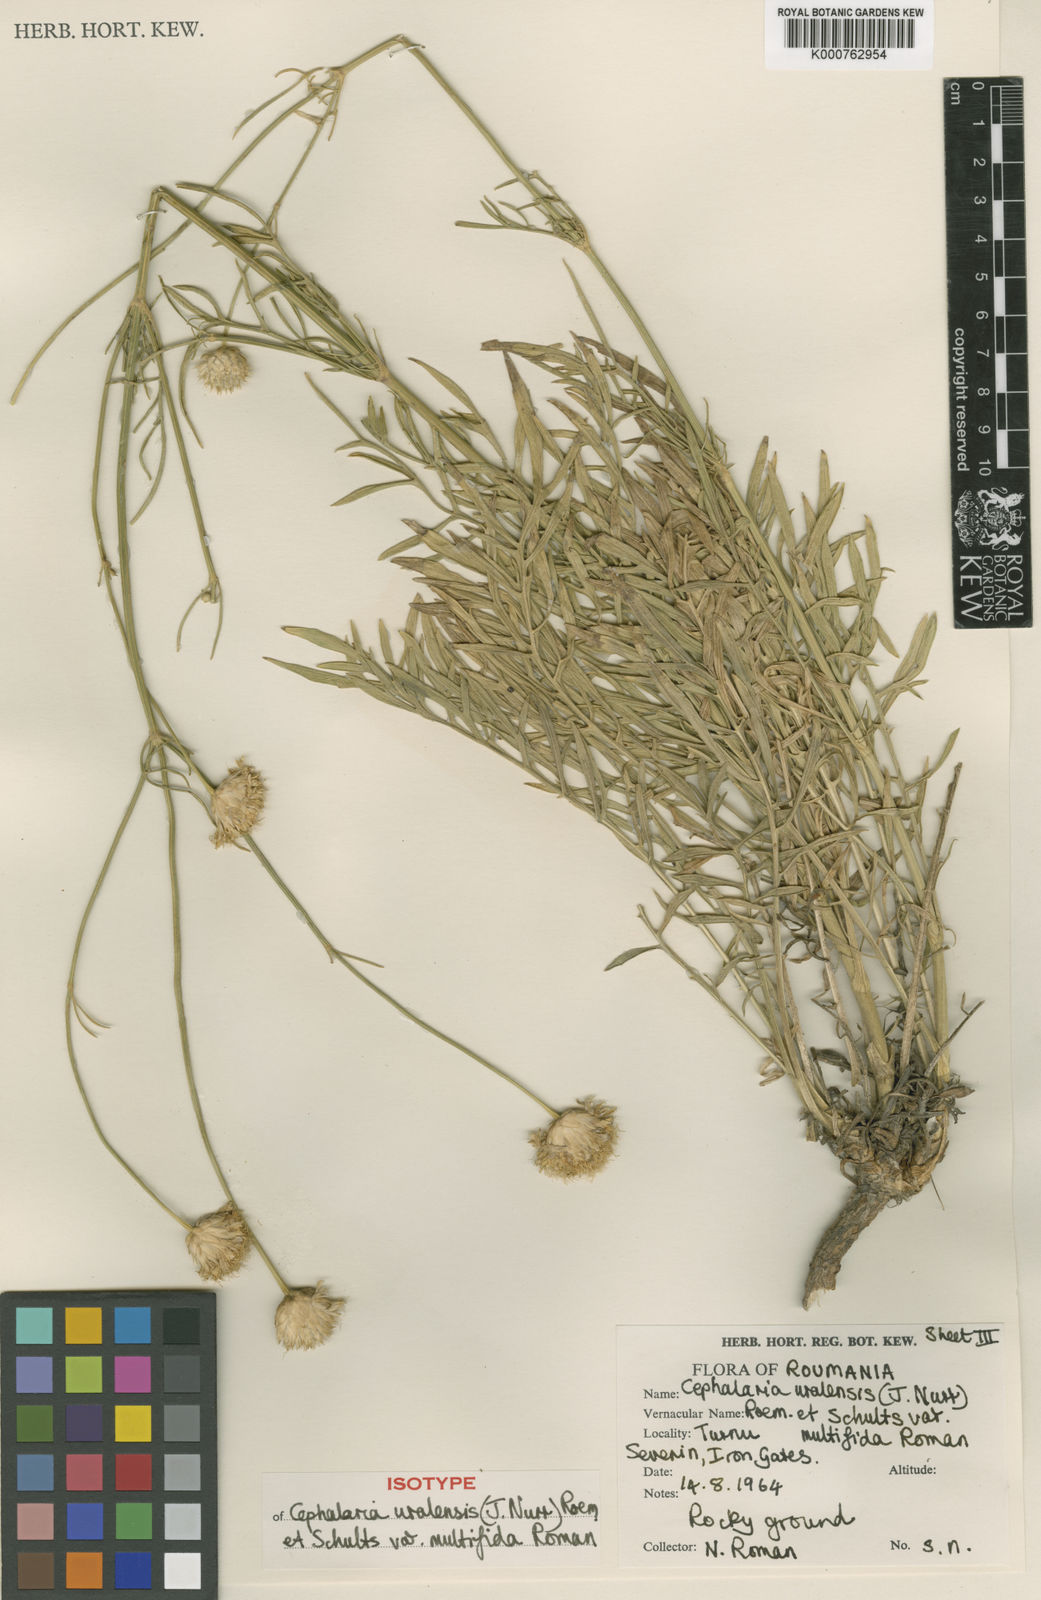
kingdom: Plantae
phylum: Tracheophyta
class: Magnoliopsida
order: Dipsacales
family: Caprifoliaceae
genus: Cephalaria
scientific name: Cephalaria uralensis
